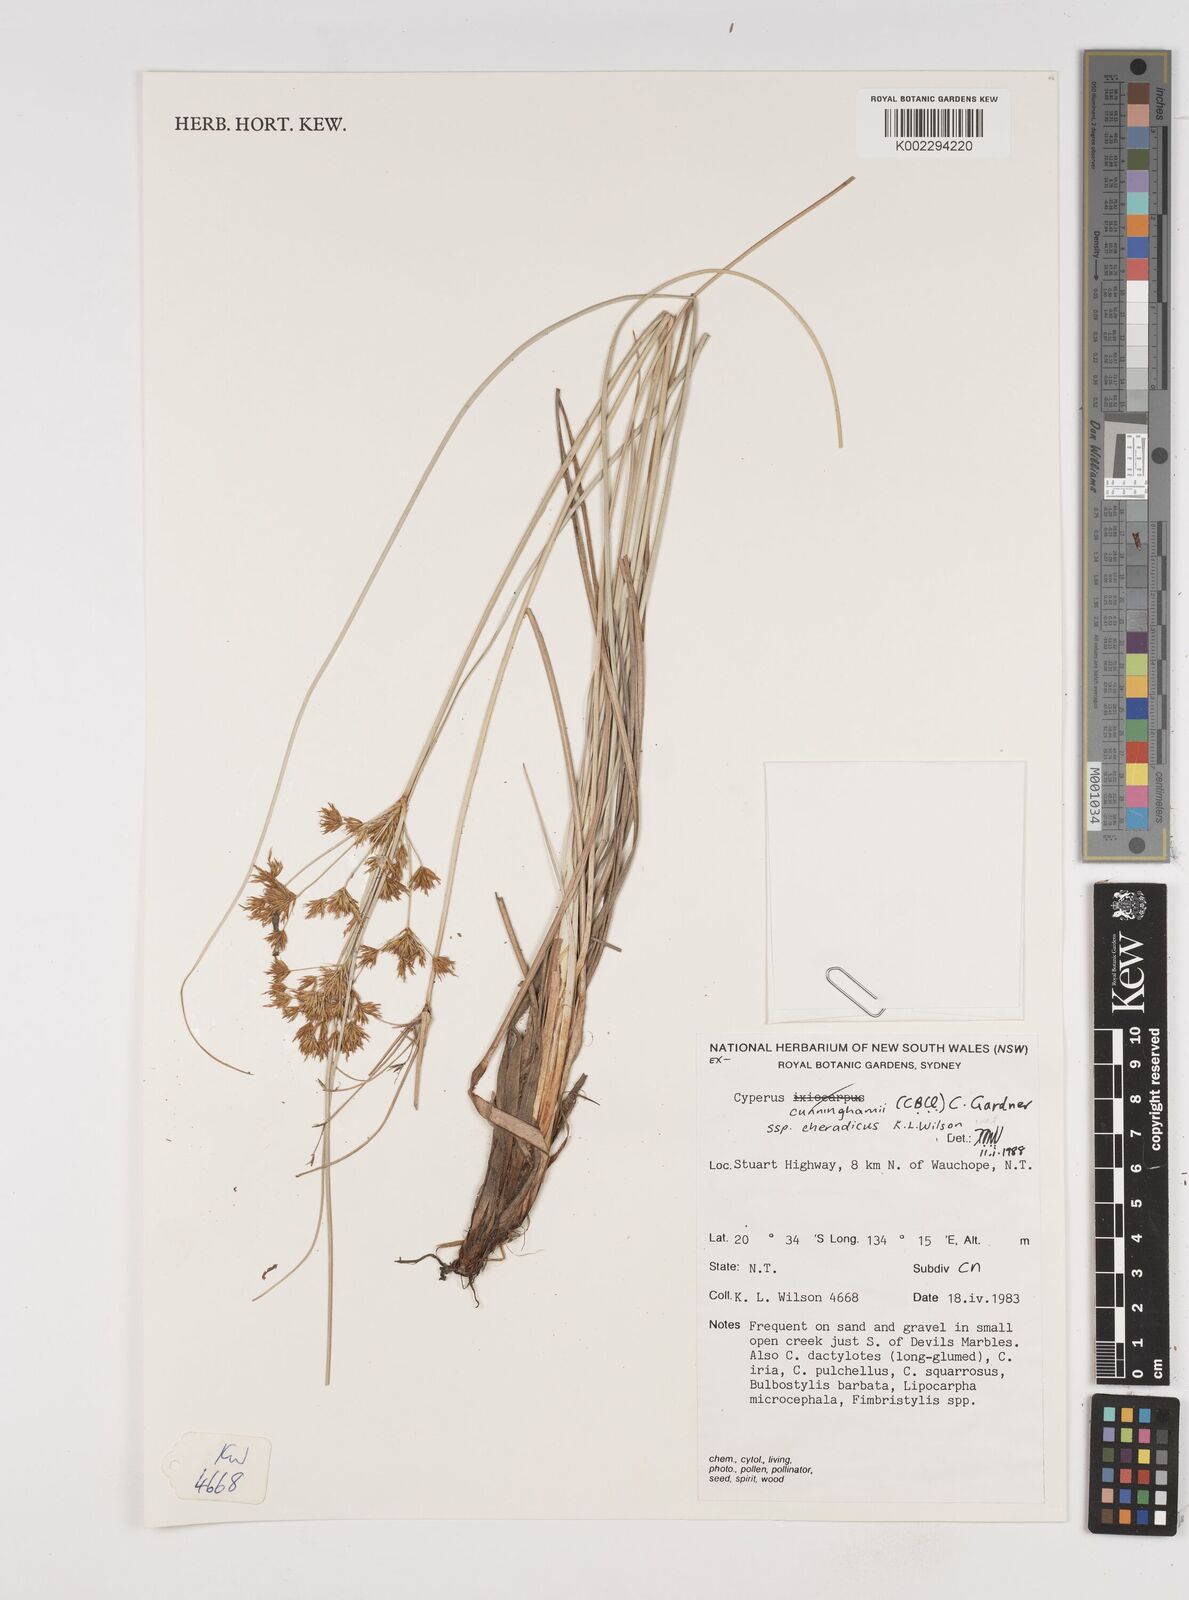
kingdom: Plantae
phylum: Tracheophyta
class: Liliopsida
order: Poales
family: Cyperaceae
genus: Cyperus
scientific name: Cyperus cunninghamii
